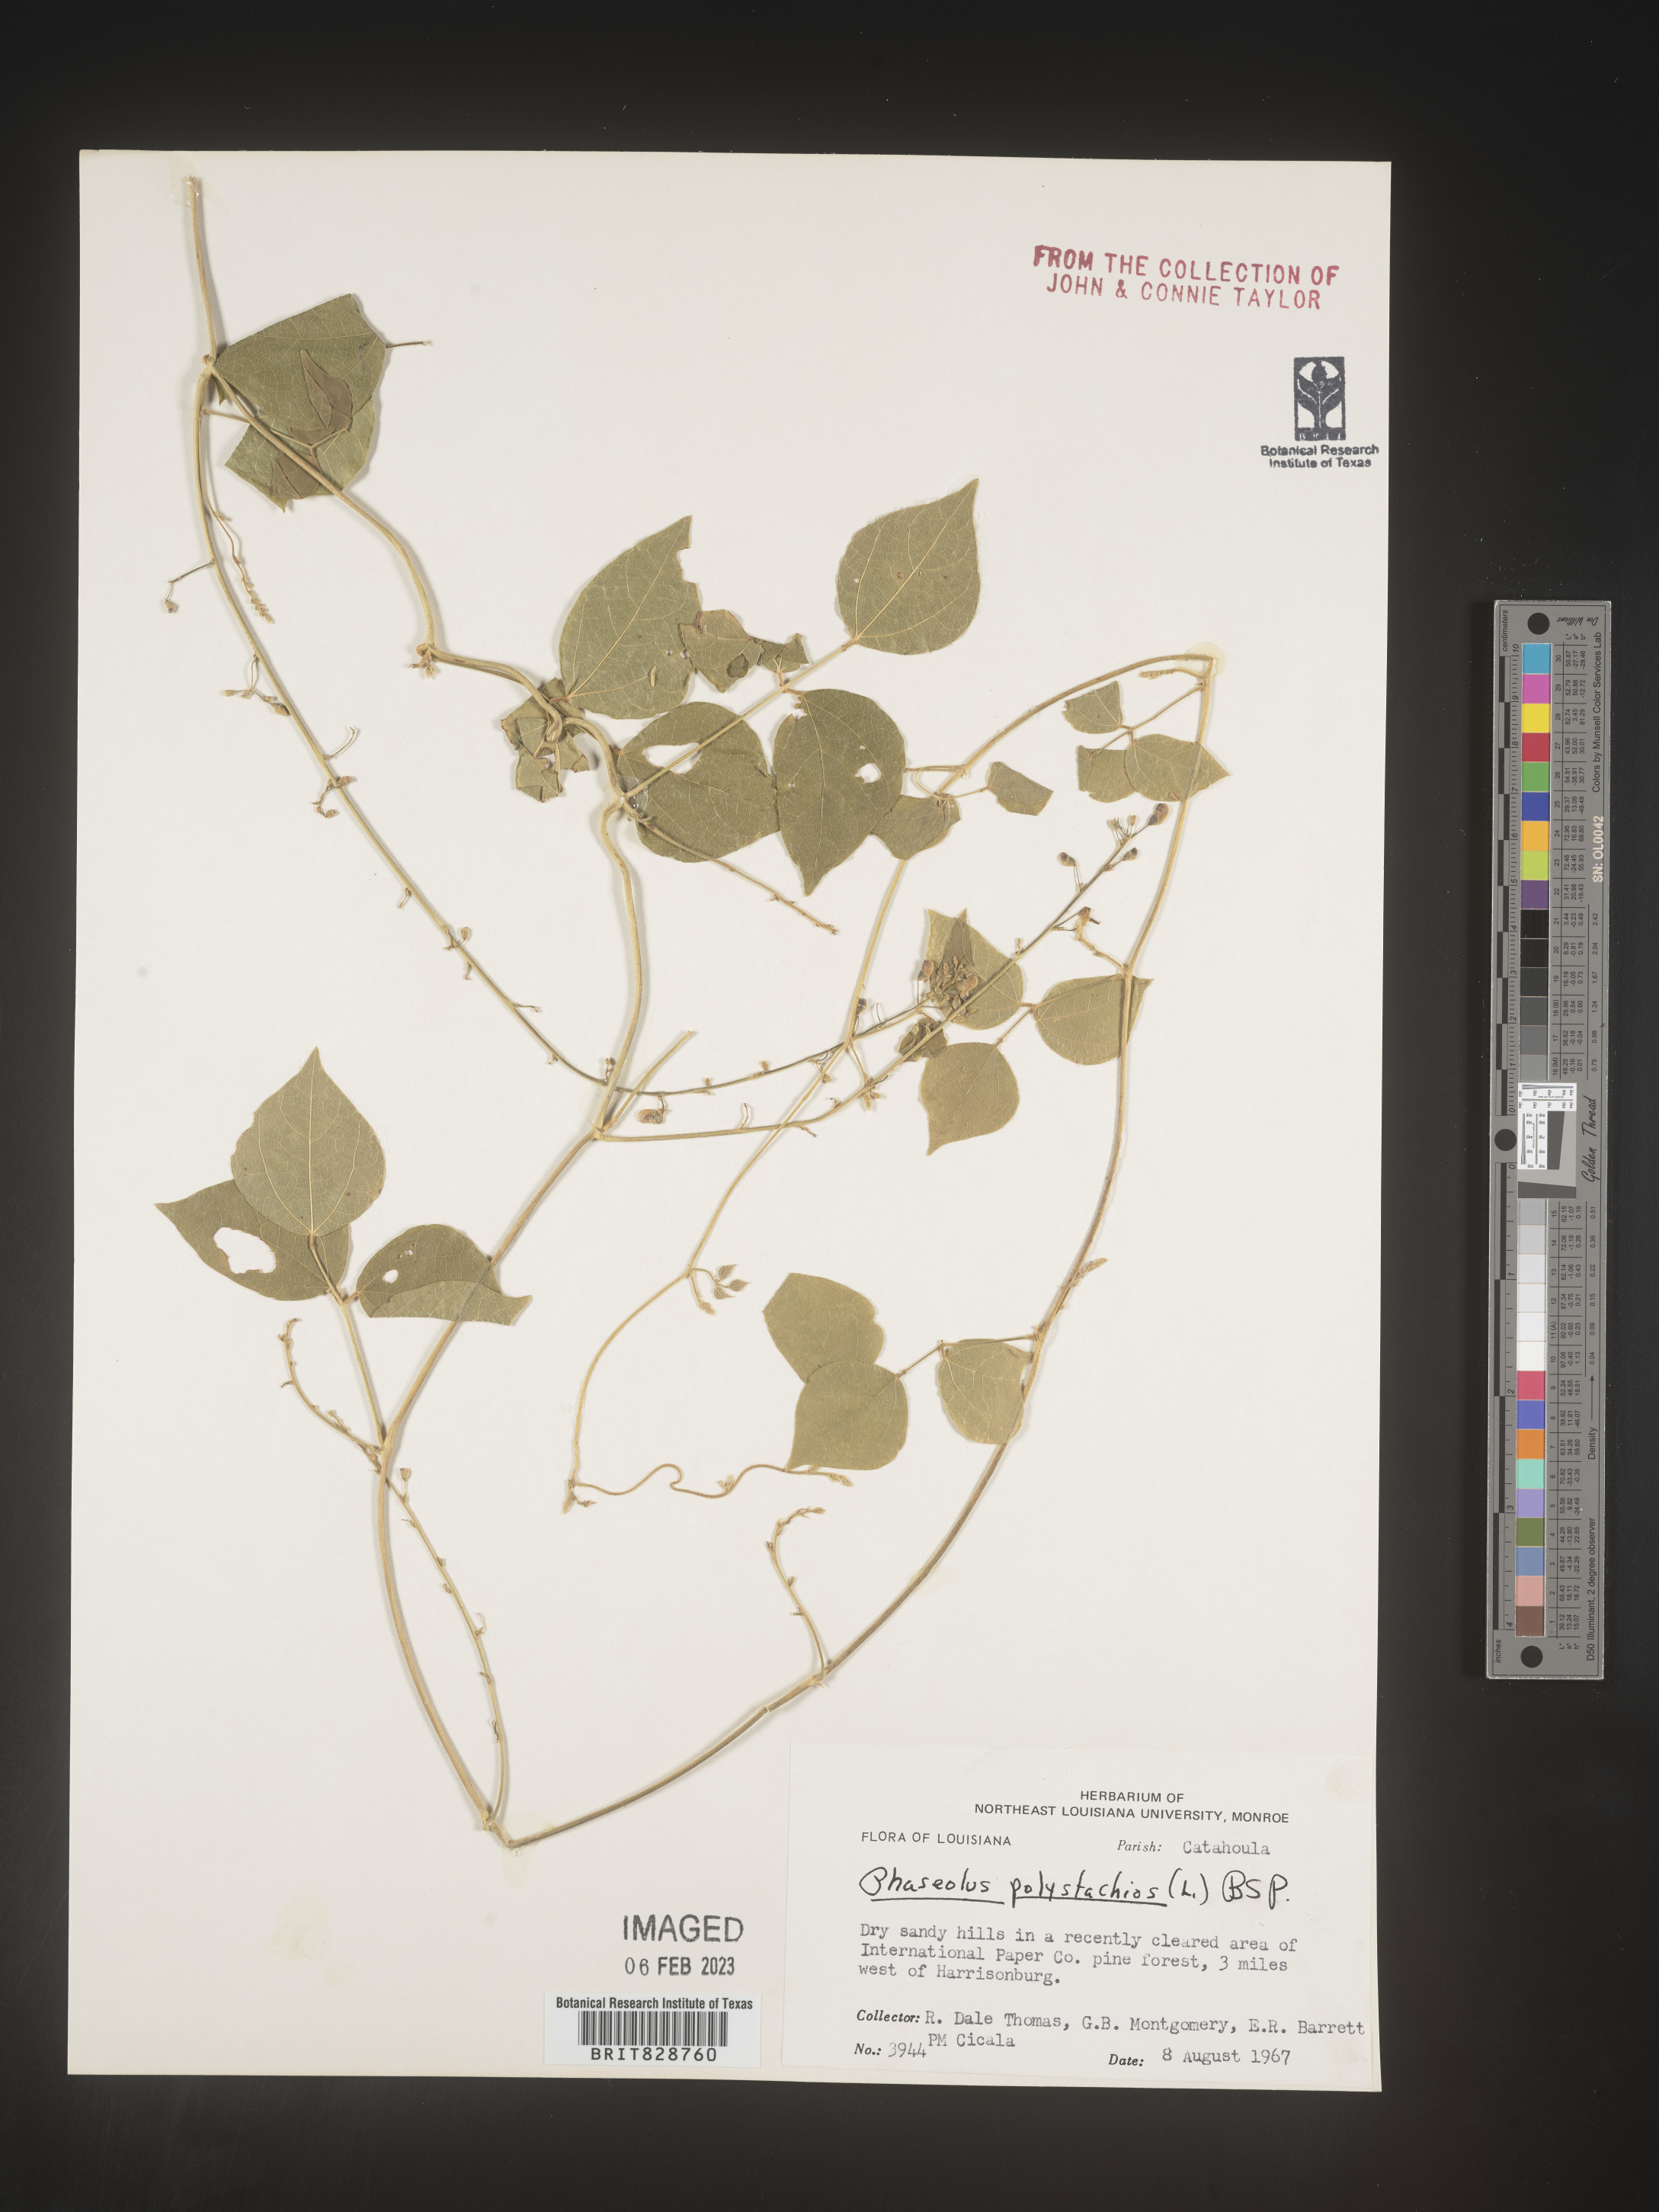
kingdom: Plantae
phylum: Tracheophyta
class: Magnoliopsida
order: Fabales
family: Fabaceae
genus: Phaseolus
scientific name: Phaseolus polystachios
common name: Thicket bean
